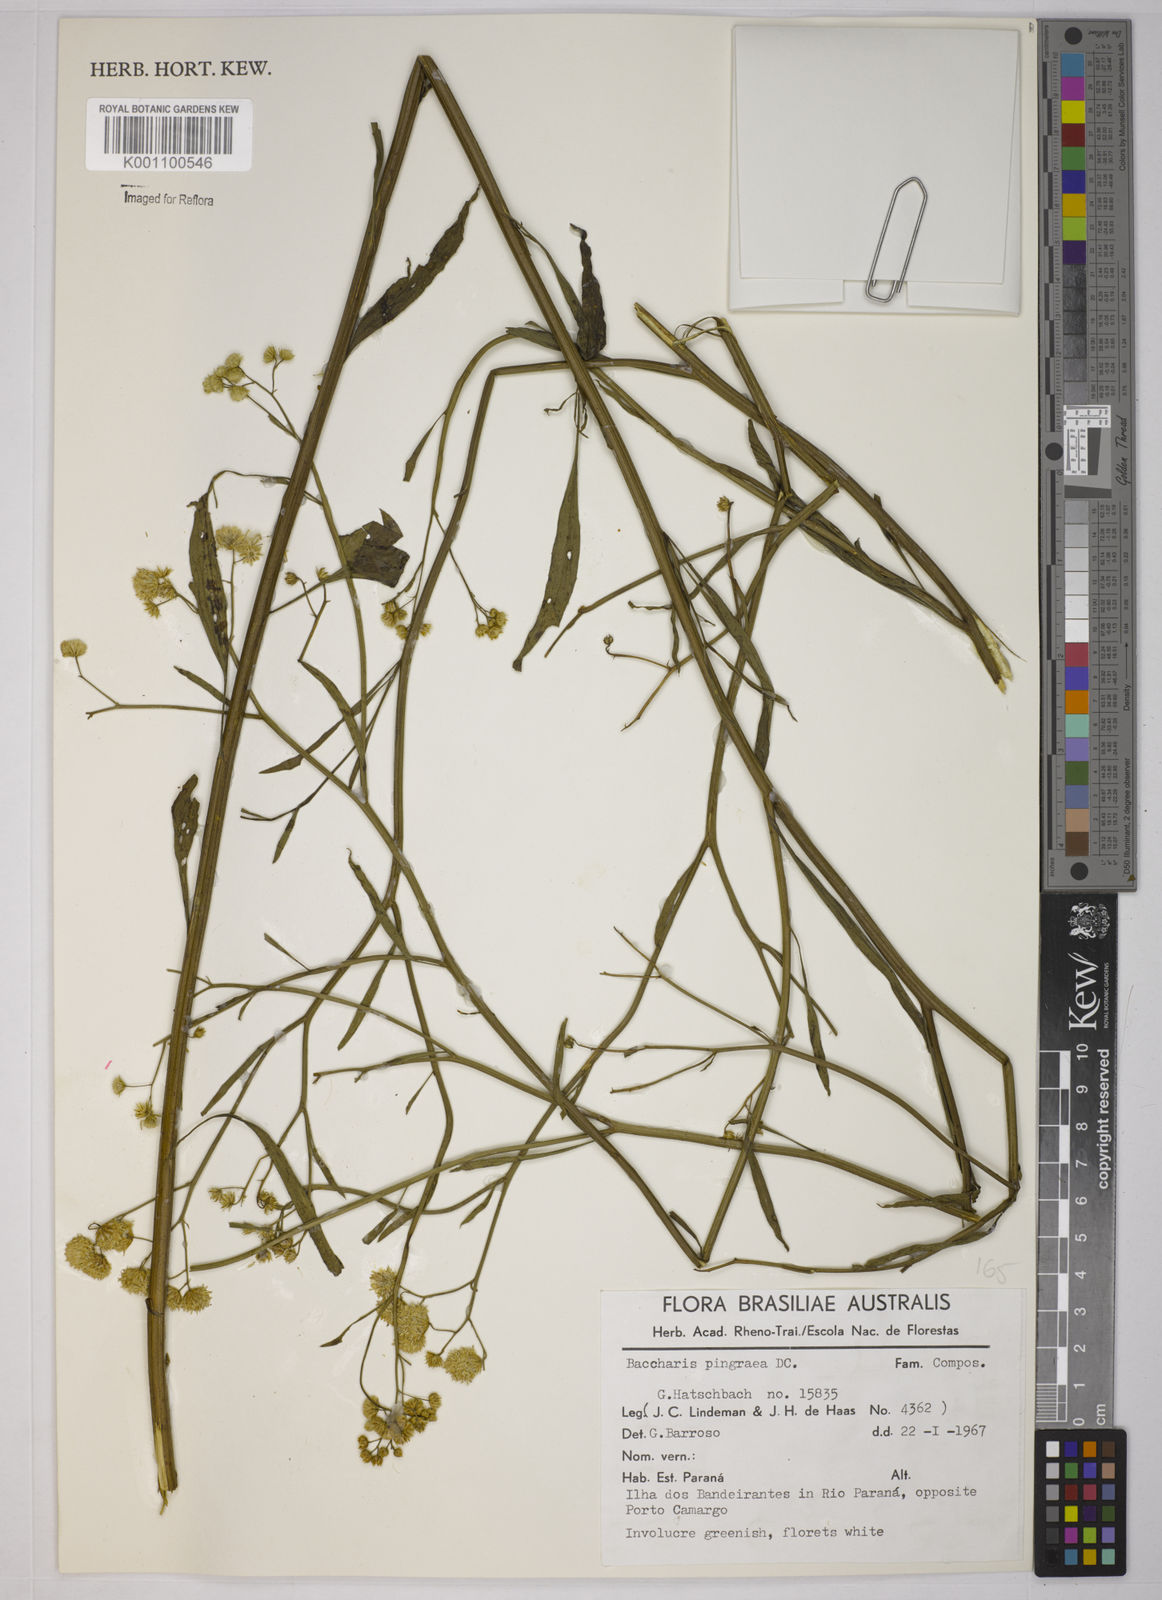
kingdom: Plantae
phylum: Tracheophyta
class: Magnoliopsida
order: Asterales
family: Asteraceae
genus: Baccharis
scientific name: Baccharis glutinosa
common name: Saltmarsh baccharis
